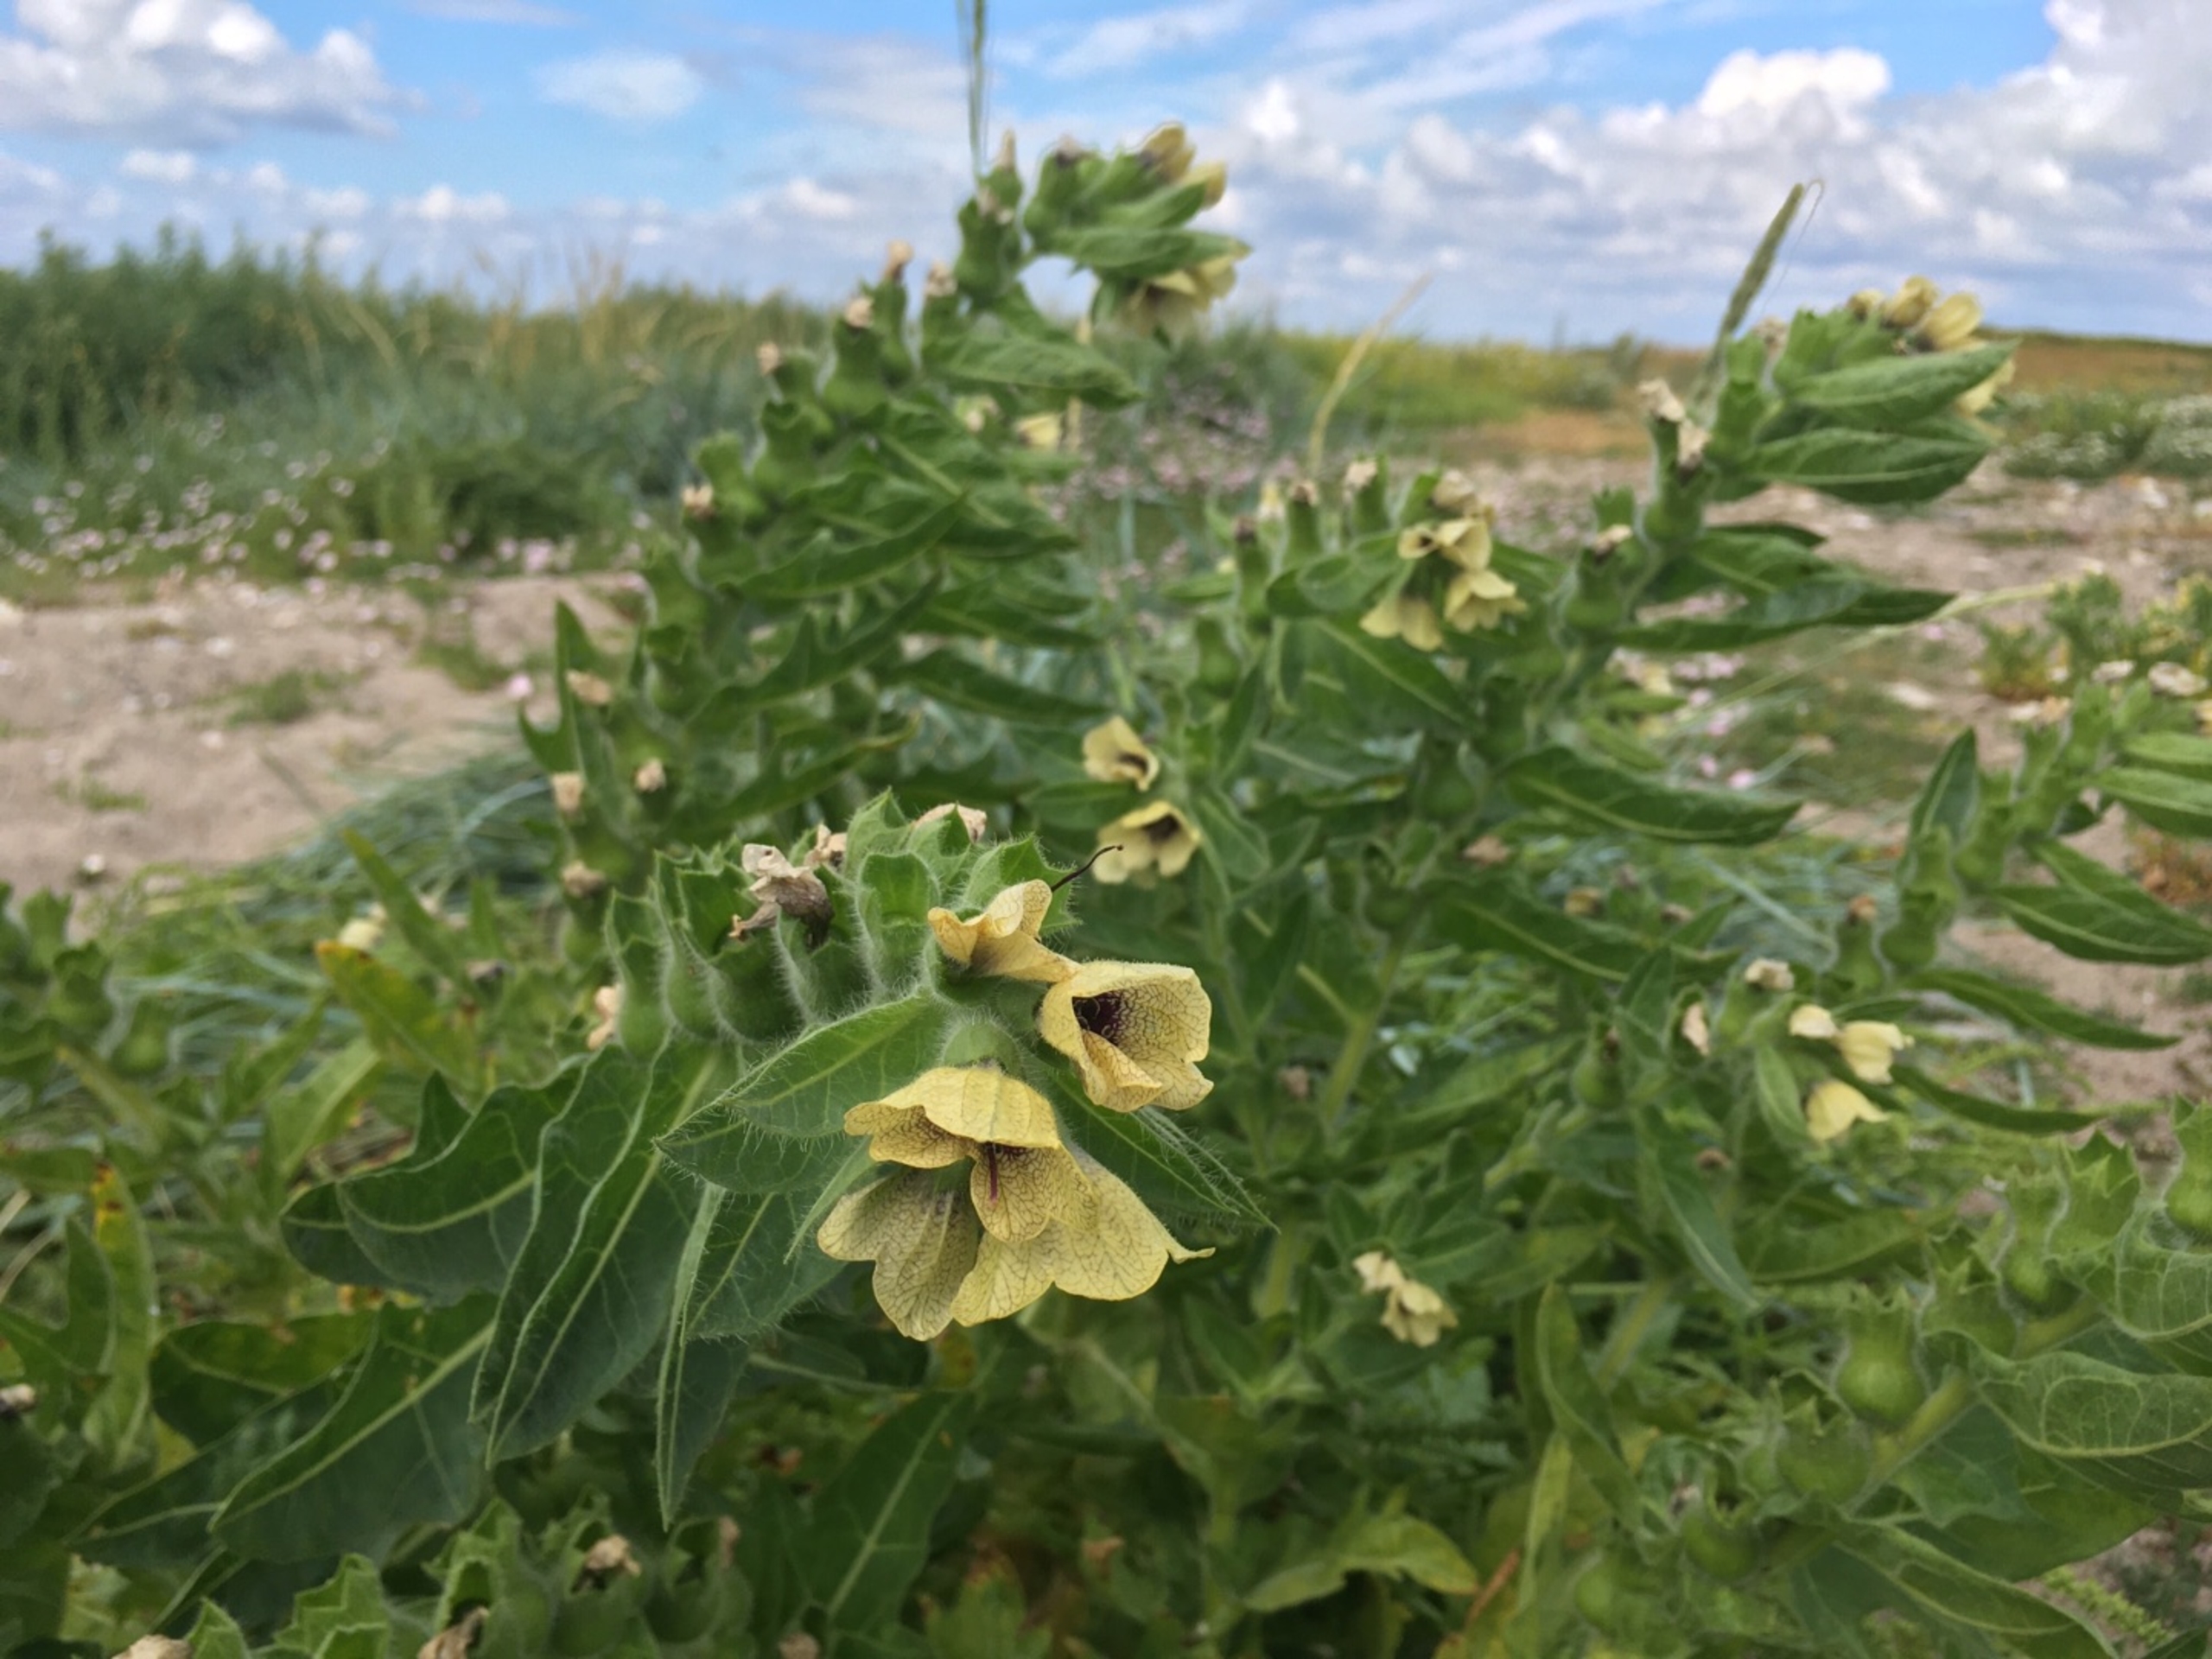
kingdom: Plantae
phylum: Tracheophyta
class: Magnoliopsida
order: Solanales
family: Solanaceae
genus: Hyoscyamus
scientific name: Hyoscyamus niger
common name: Bulmeurt
